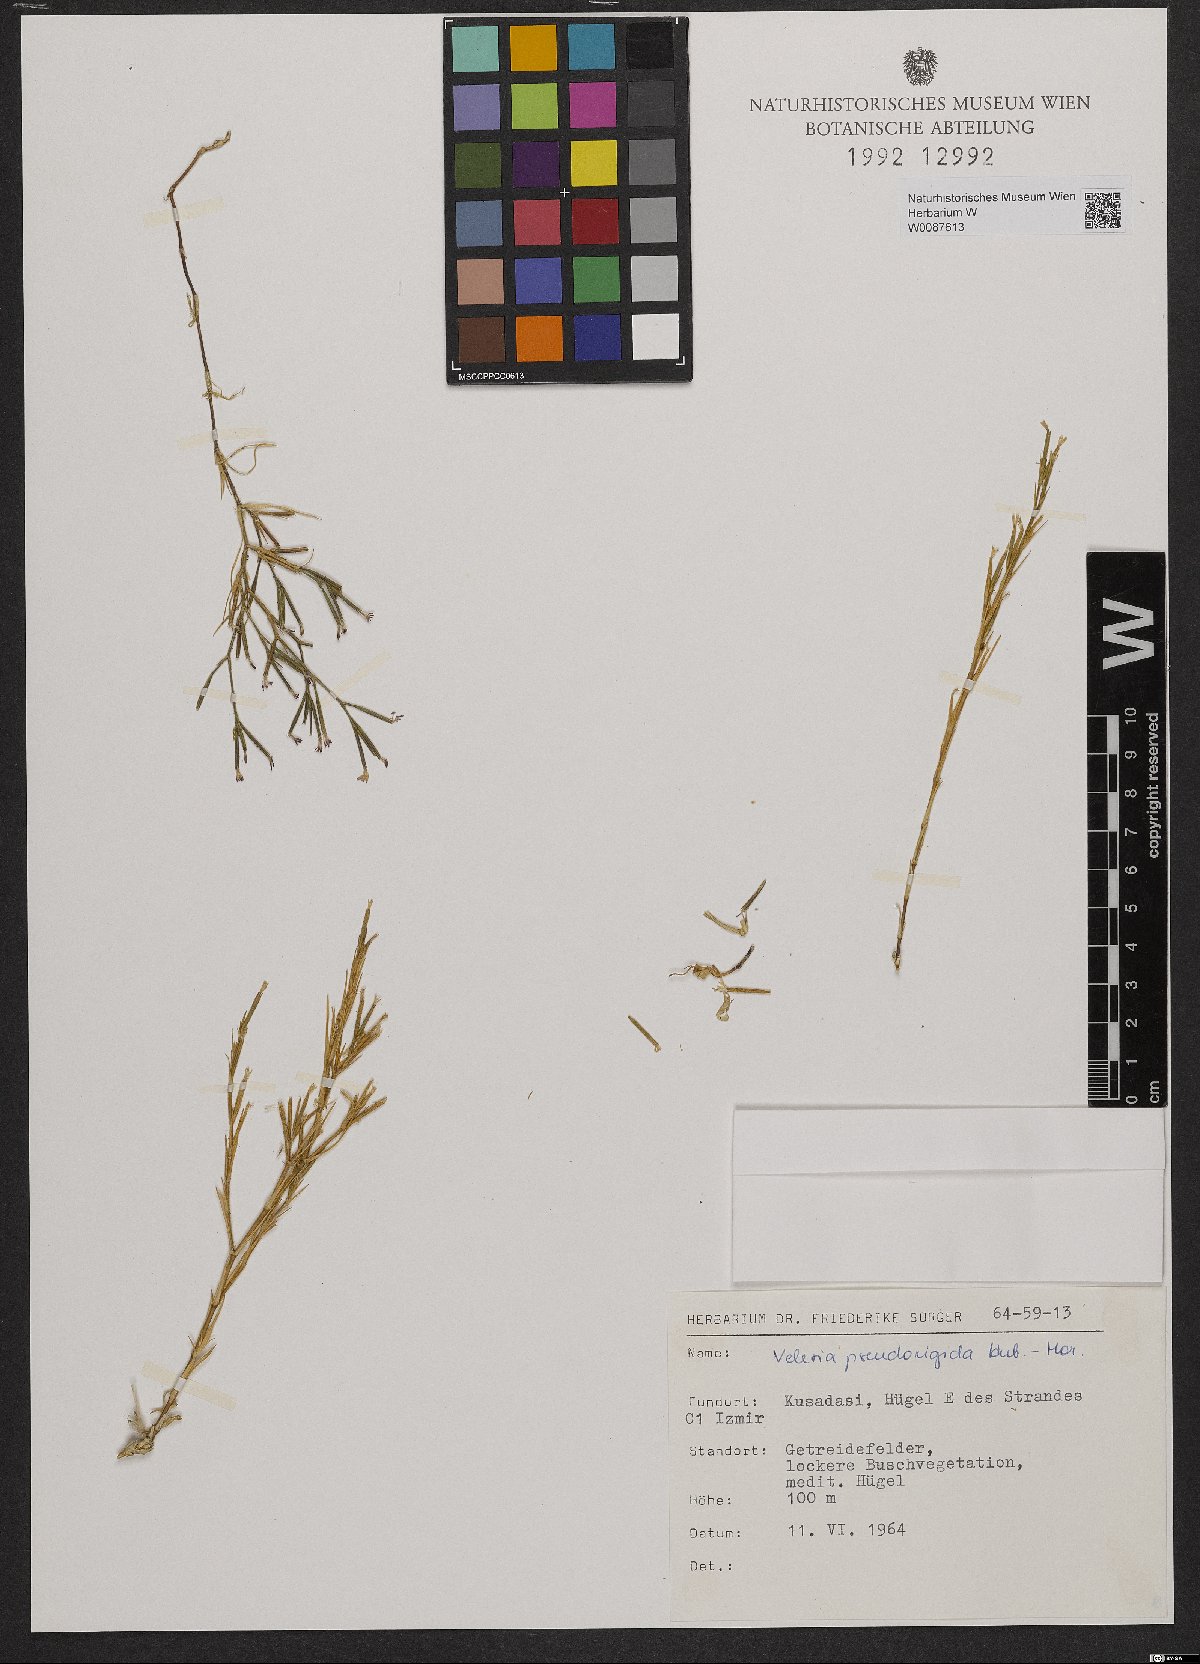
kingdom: Plantae
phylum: Tracheophyta
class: Magnoliopsida
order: Caryophyllales
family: Caryophyllaceae
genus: Dianthus
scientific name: Dianthus pseudorigidus
